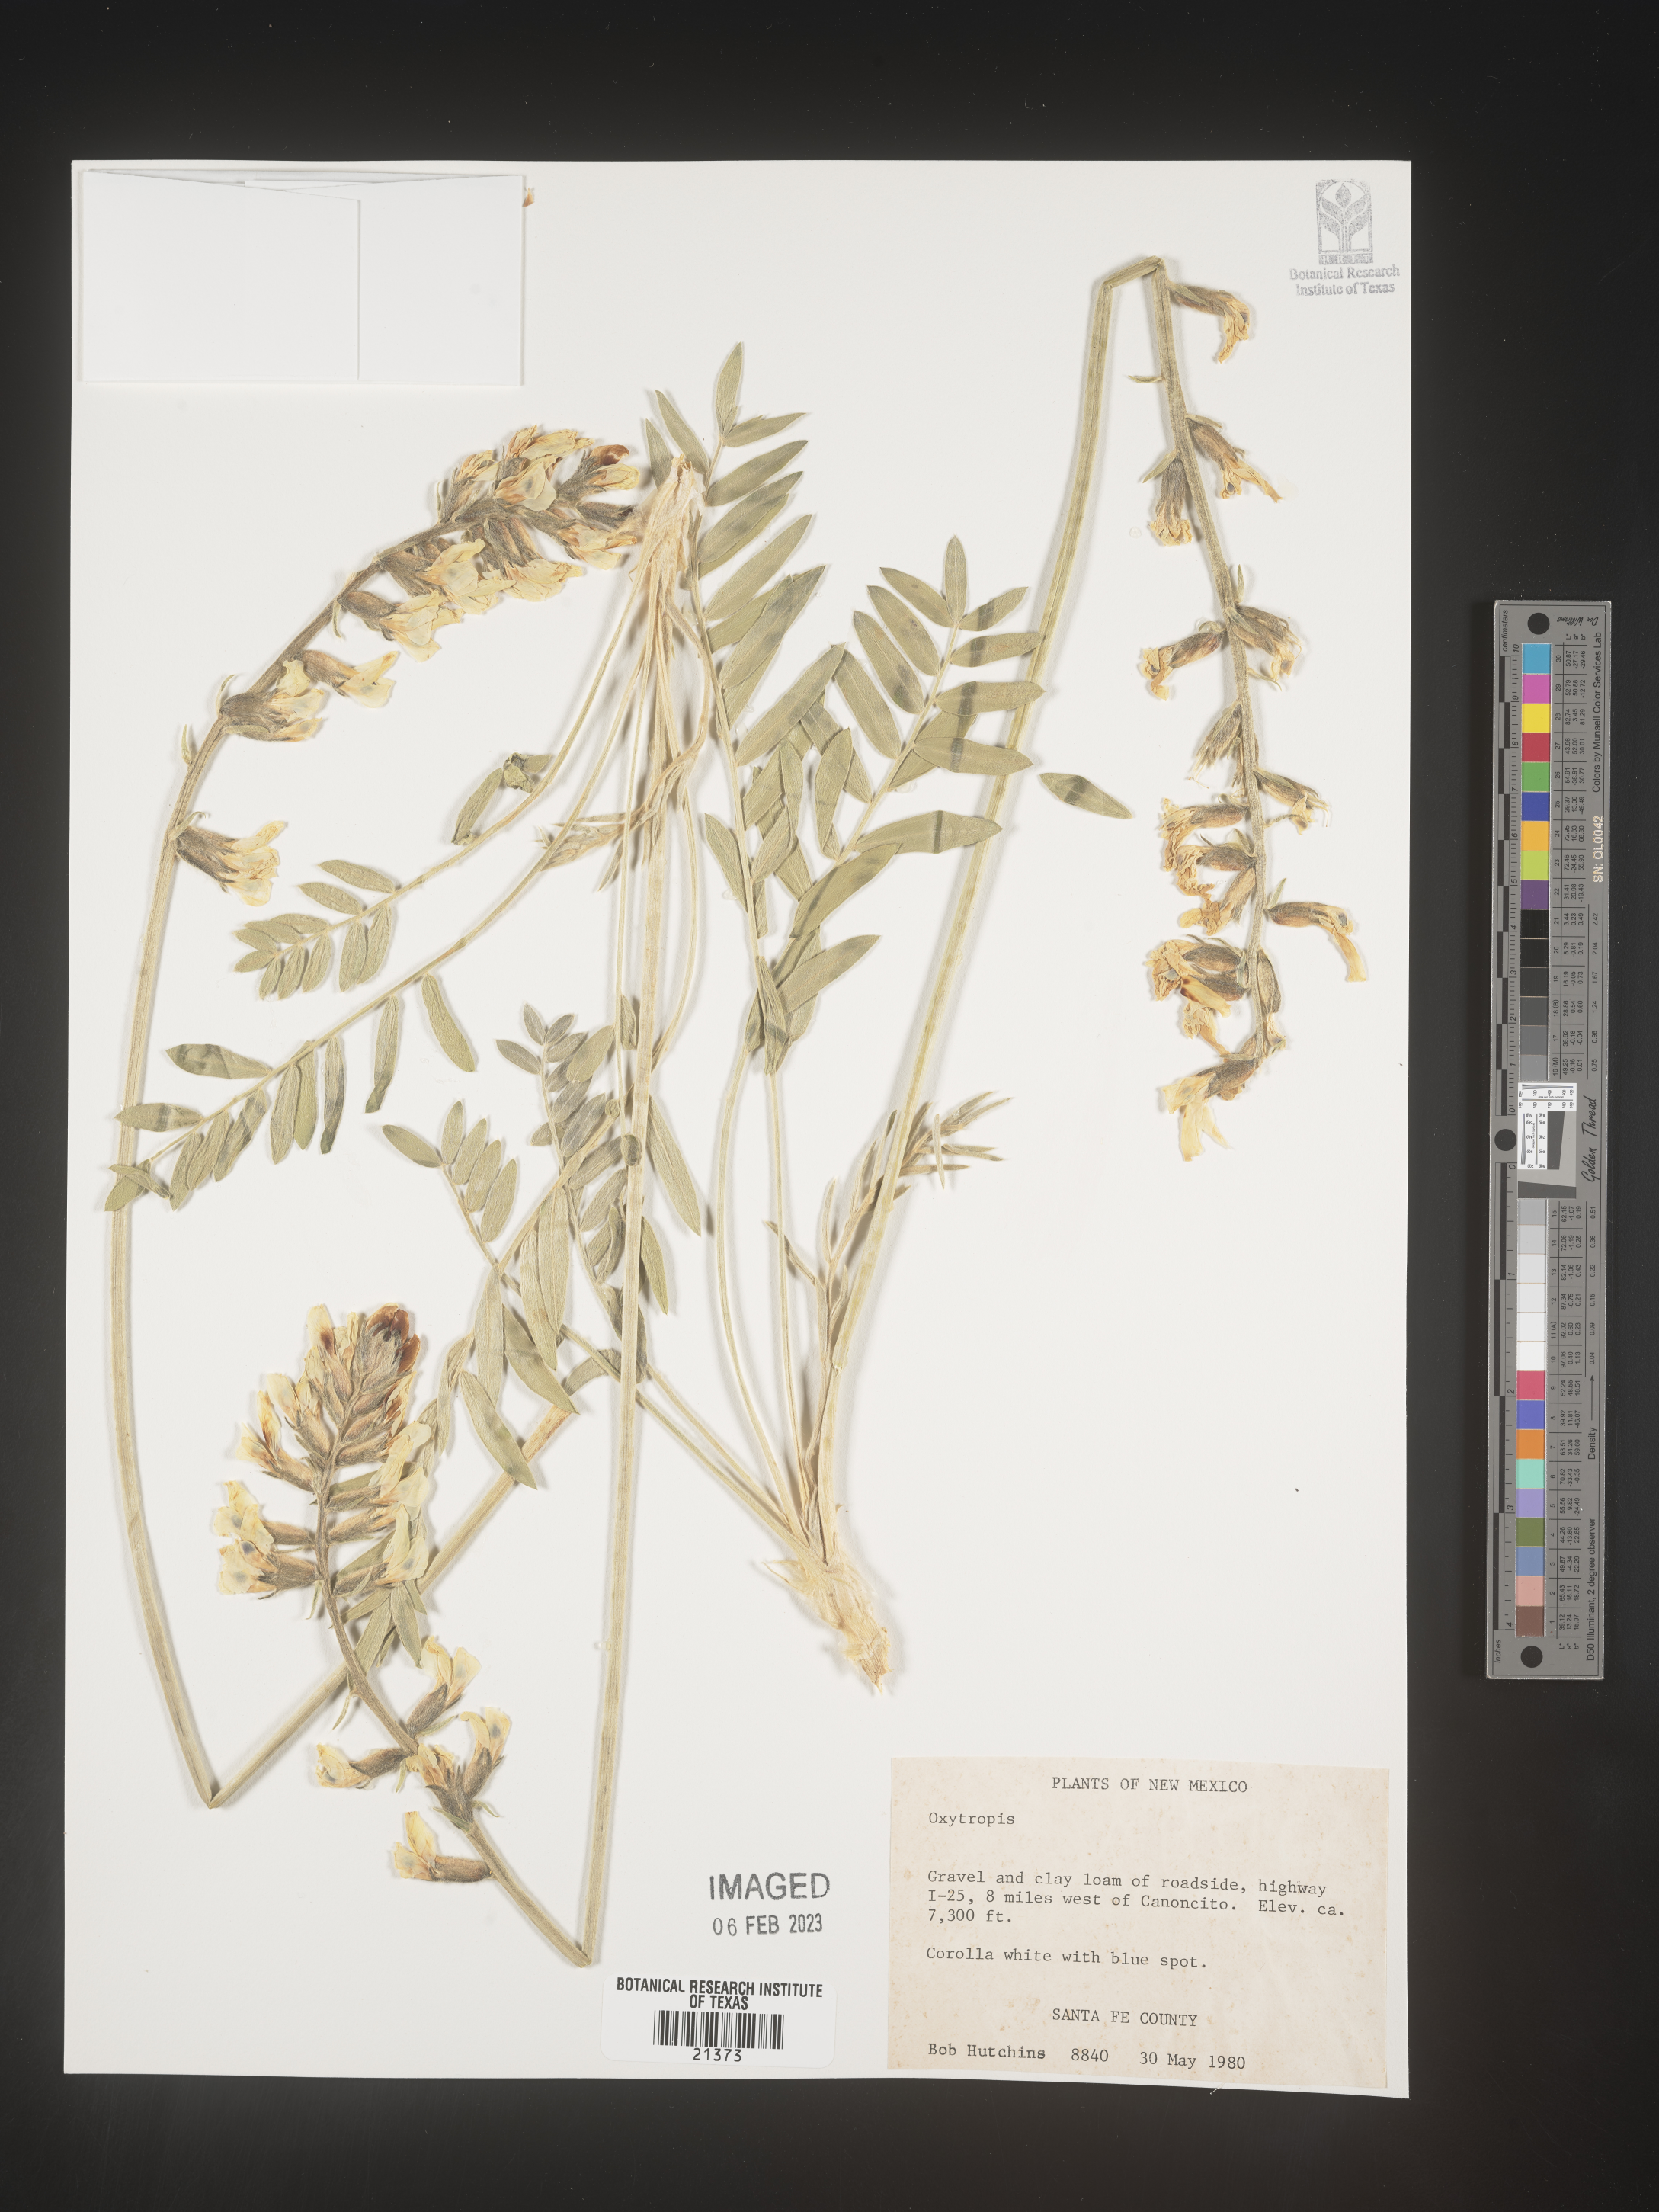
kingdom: Plantae
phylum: Tracheophyta
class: Magnoliopsida
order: Fabales
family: Fabaceae
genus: Oxytropis
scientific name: Oxytropis
